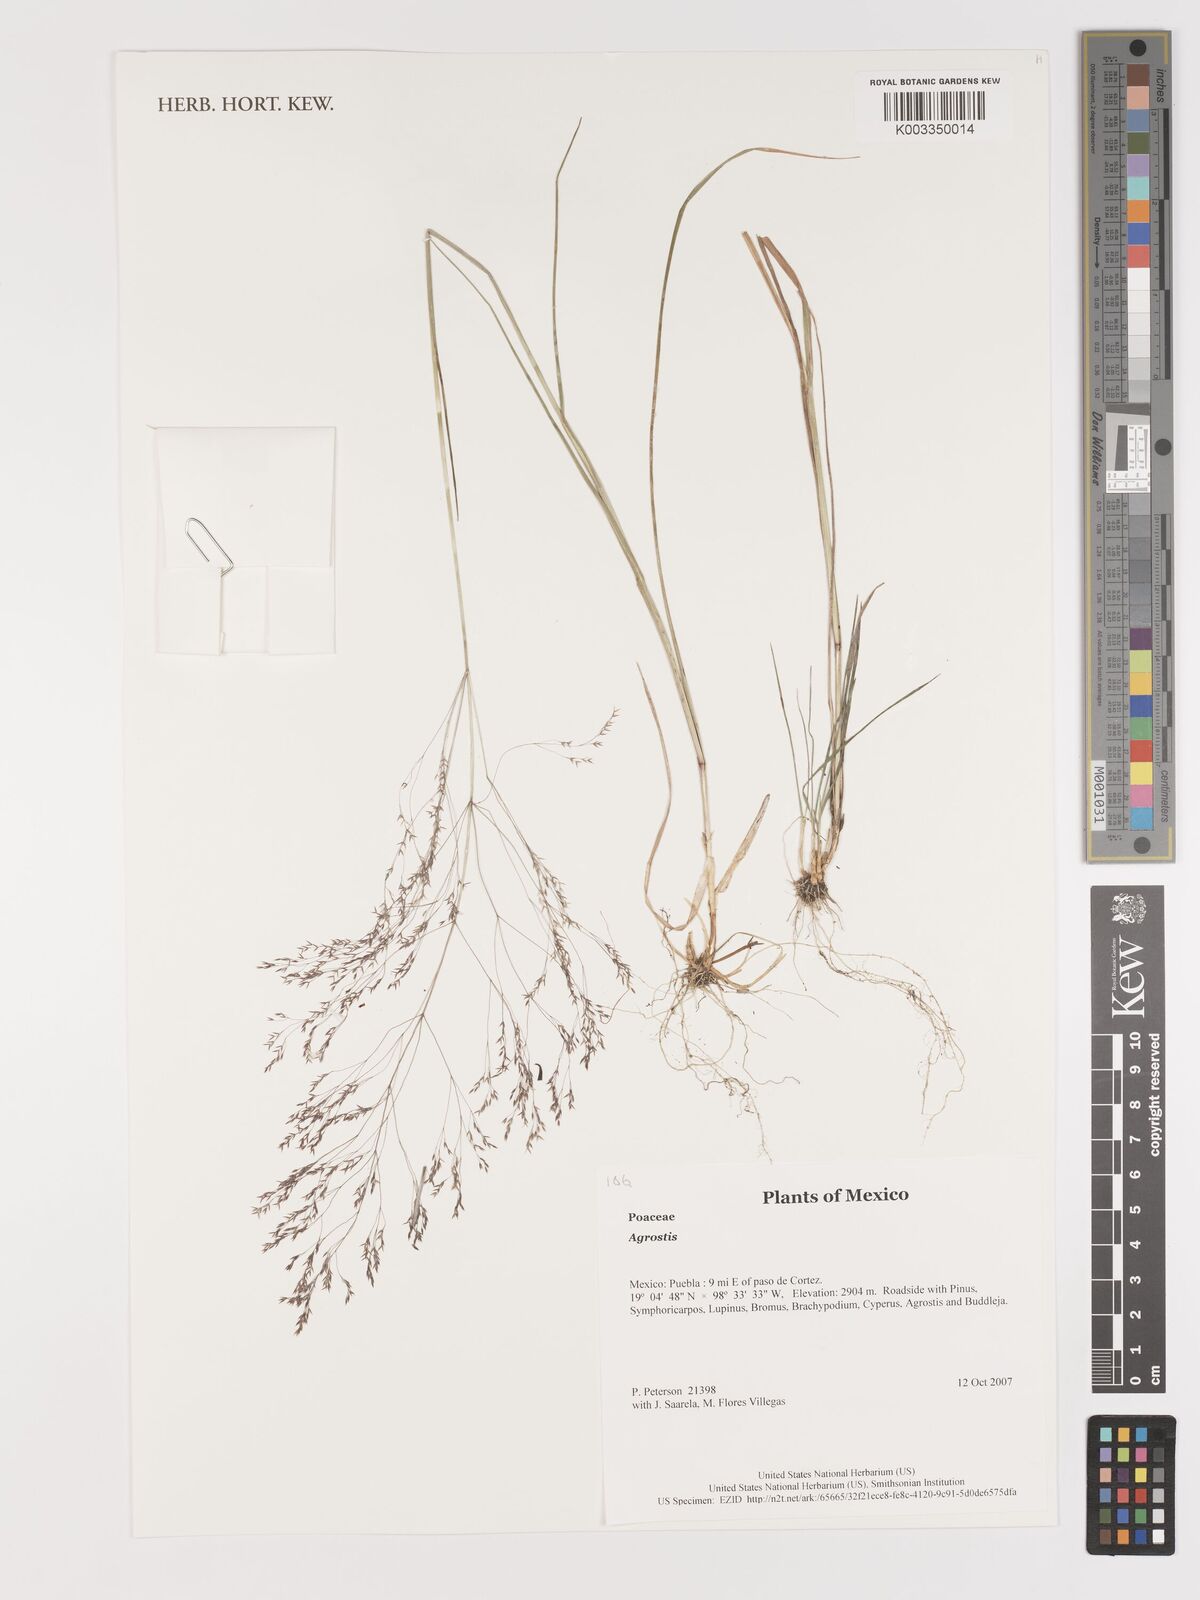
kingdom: Plantae
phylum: Tracheophyta
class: Liliopsida
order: Poales
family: Poaceae
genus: Agrostis
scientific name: Agrostis
